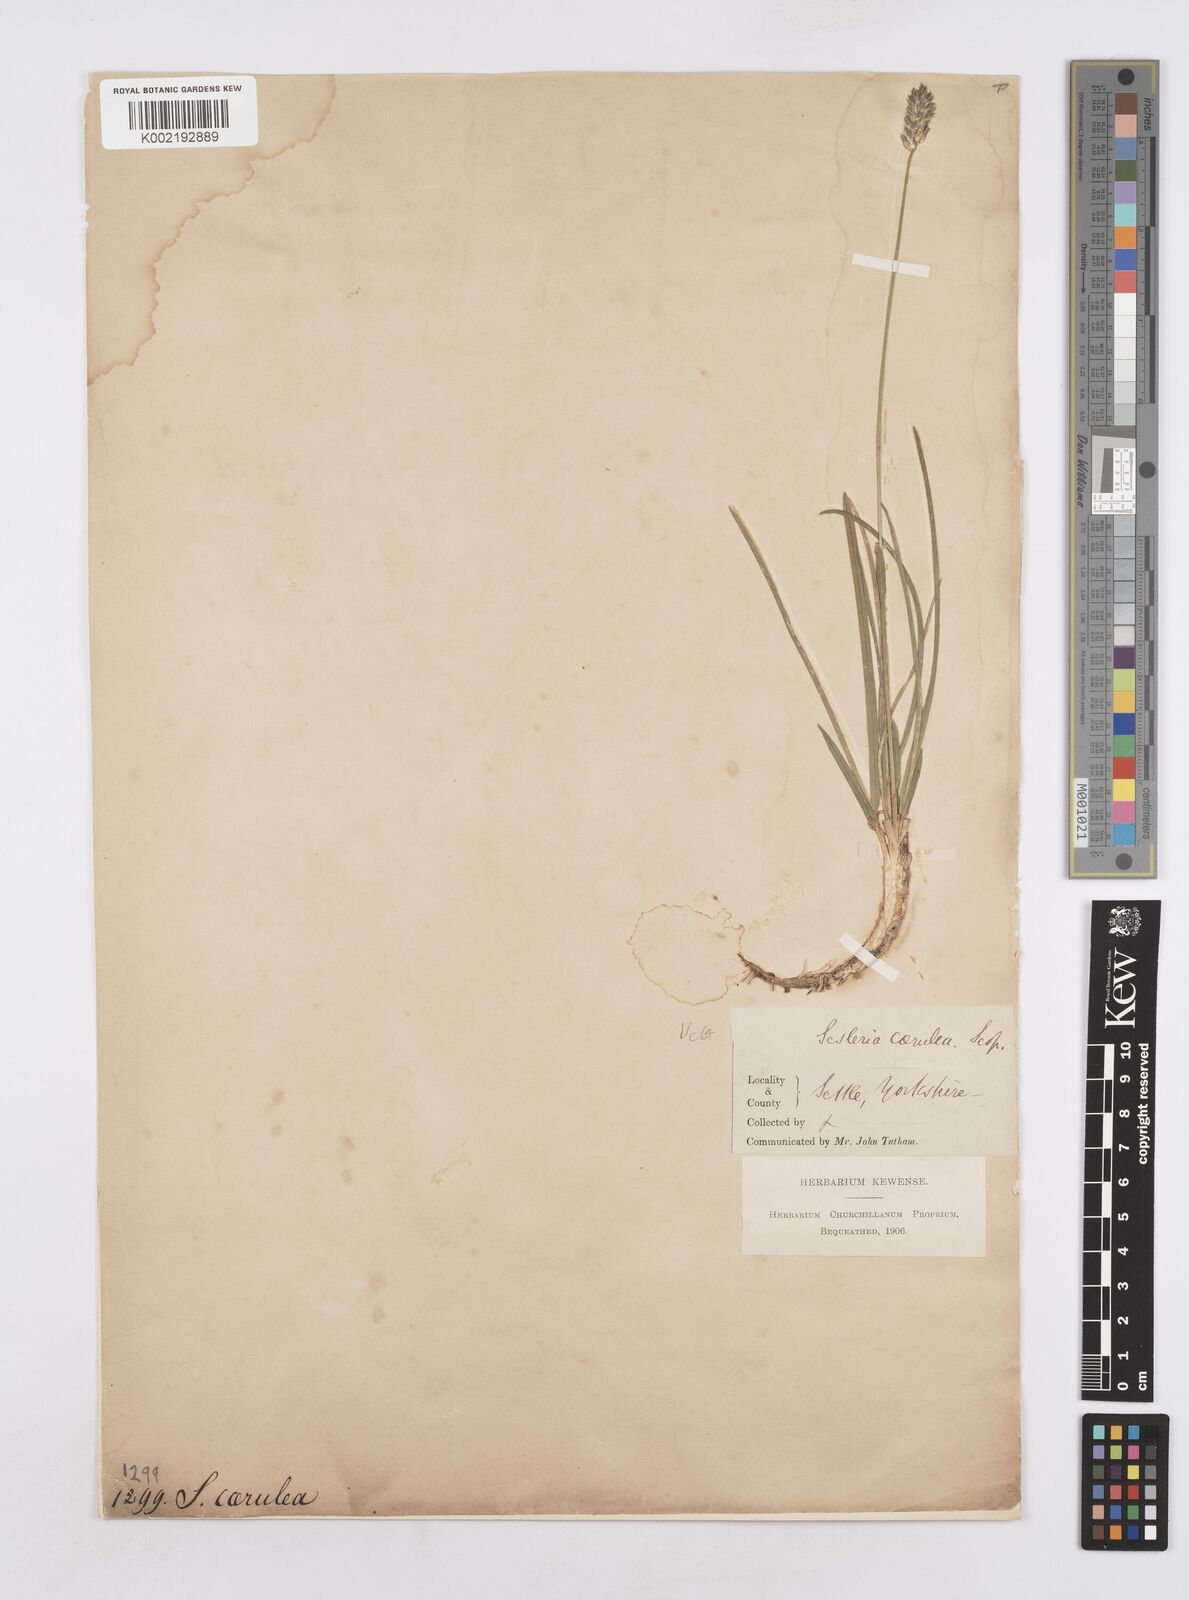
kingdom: Plantae
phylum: Tracheophyta
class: Liliopsida
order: Poales
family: Poaceae
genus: Sesleria
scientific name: Sesleria caerulea
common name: Blue moor-grass
